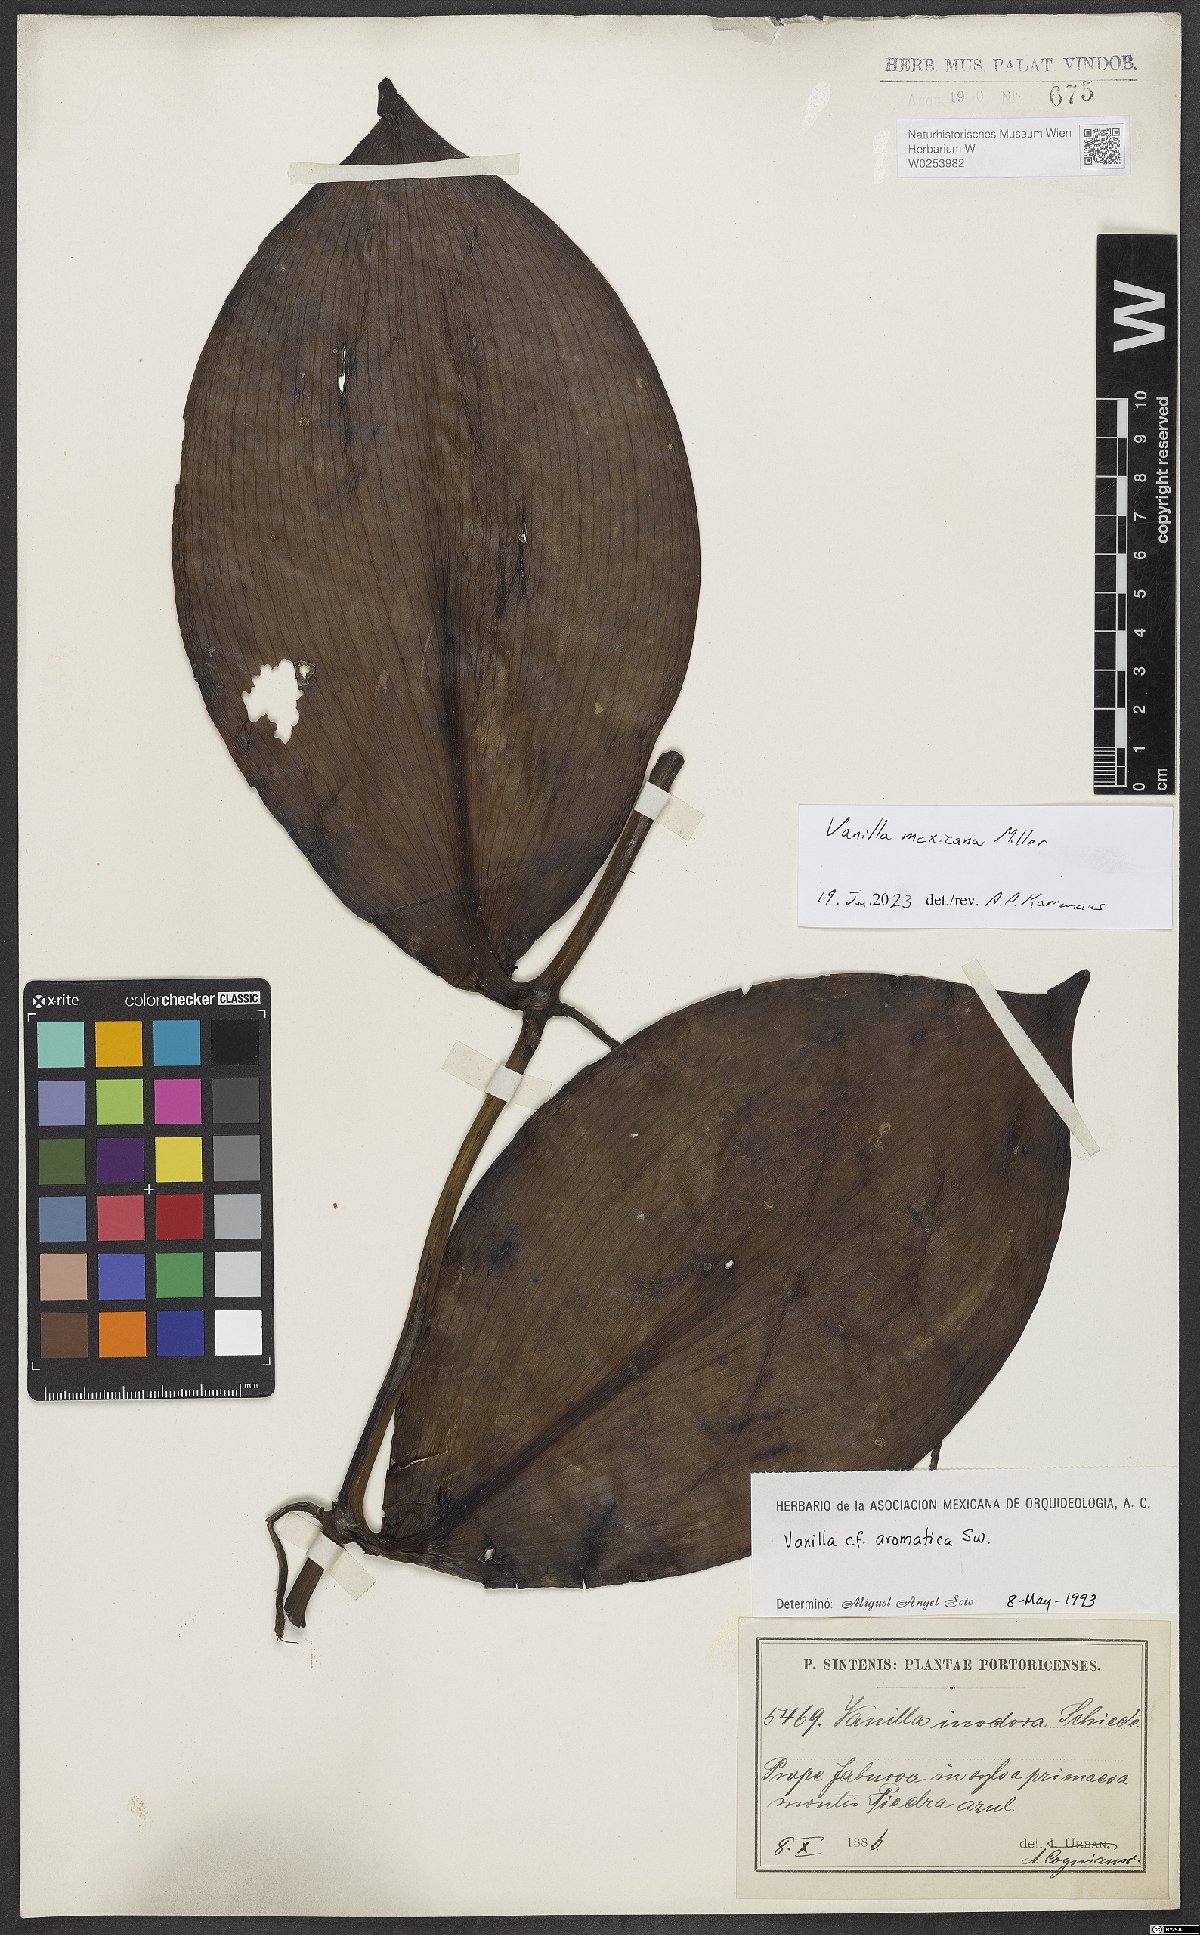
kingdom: Plantae
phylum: Tracheophyta
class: Liliopsida
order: Asparagales
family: Orchidaceae
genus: Vanilla
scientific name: Vanilla mexicana
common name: Mexican vanilla
